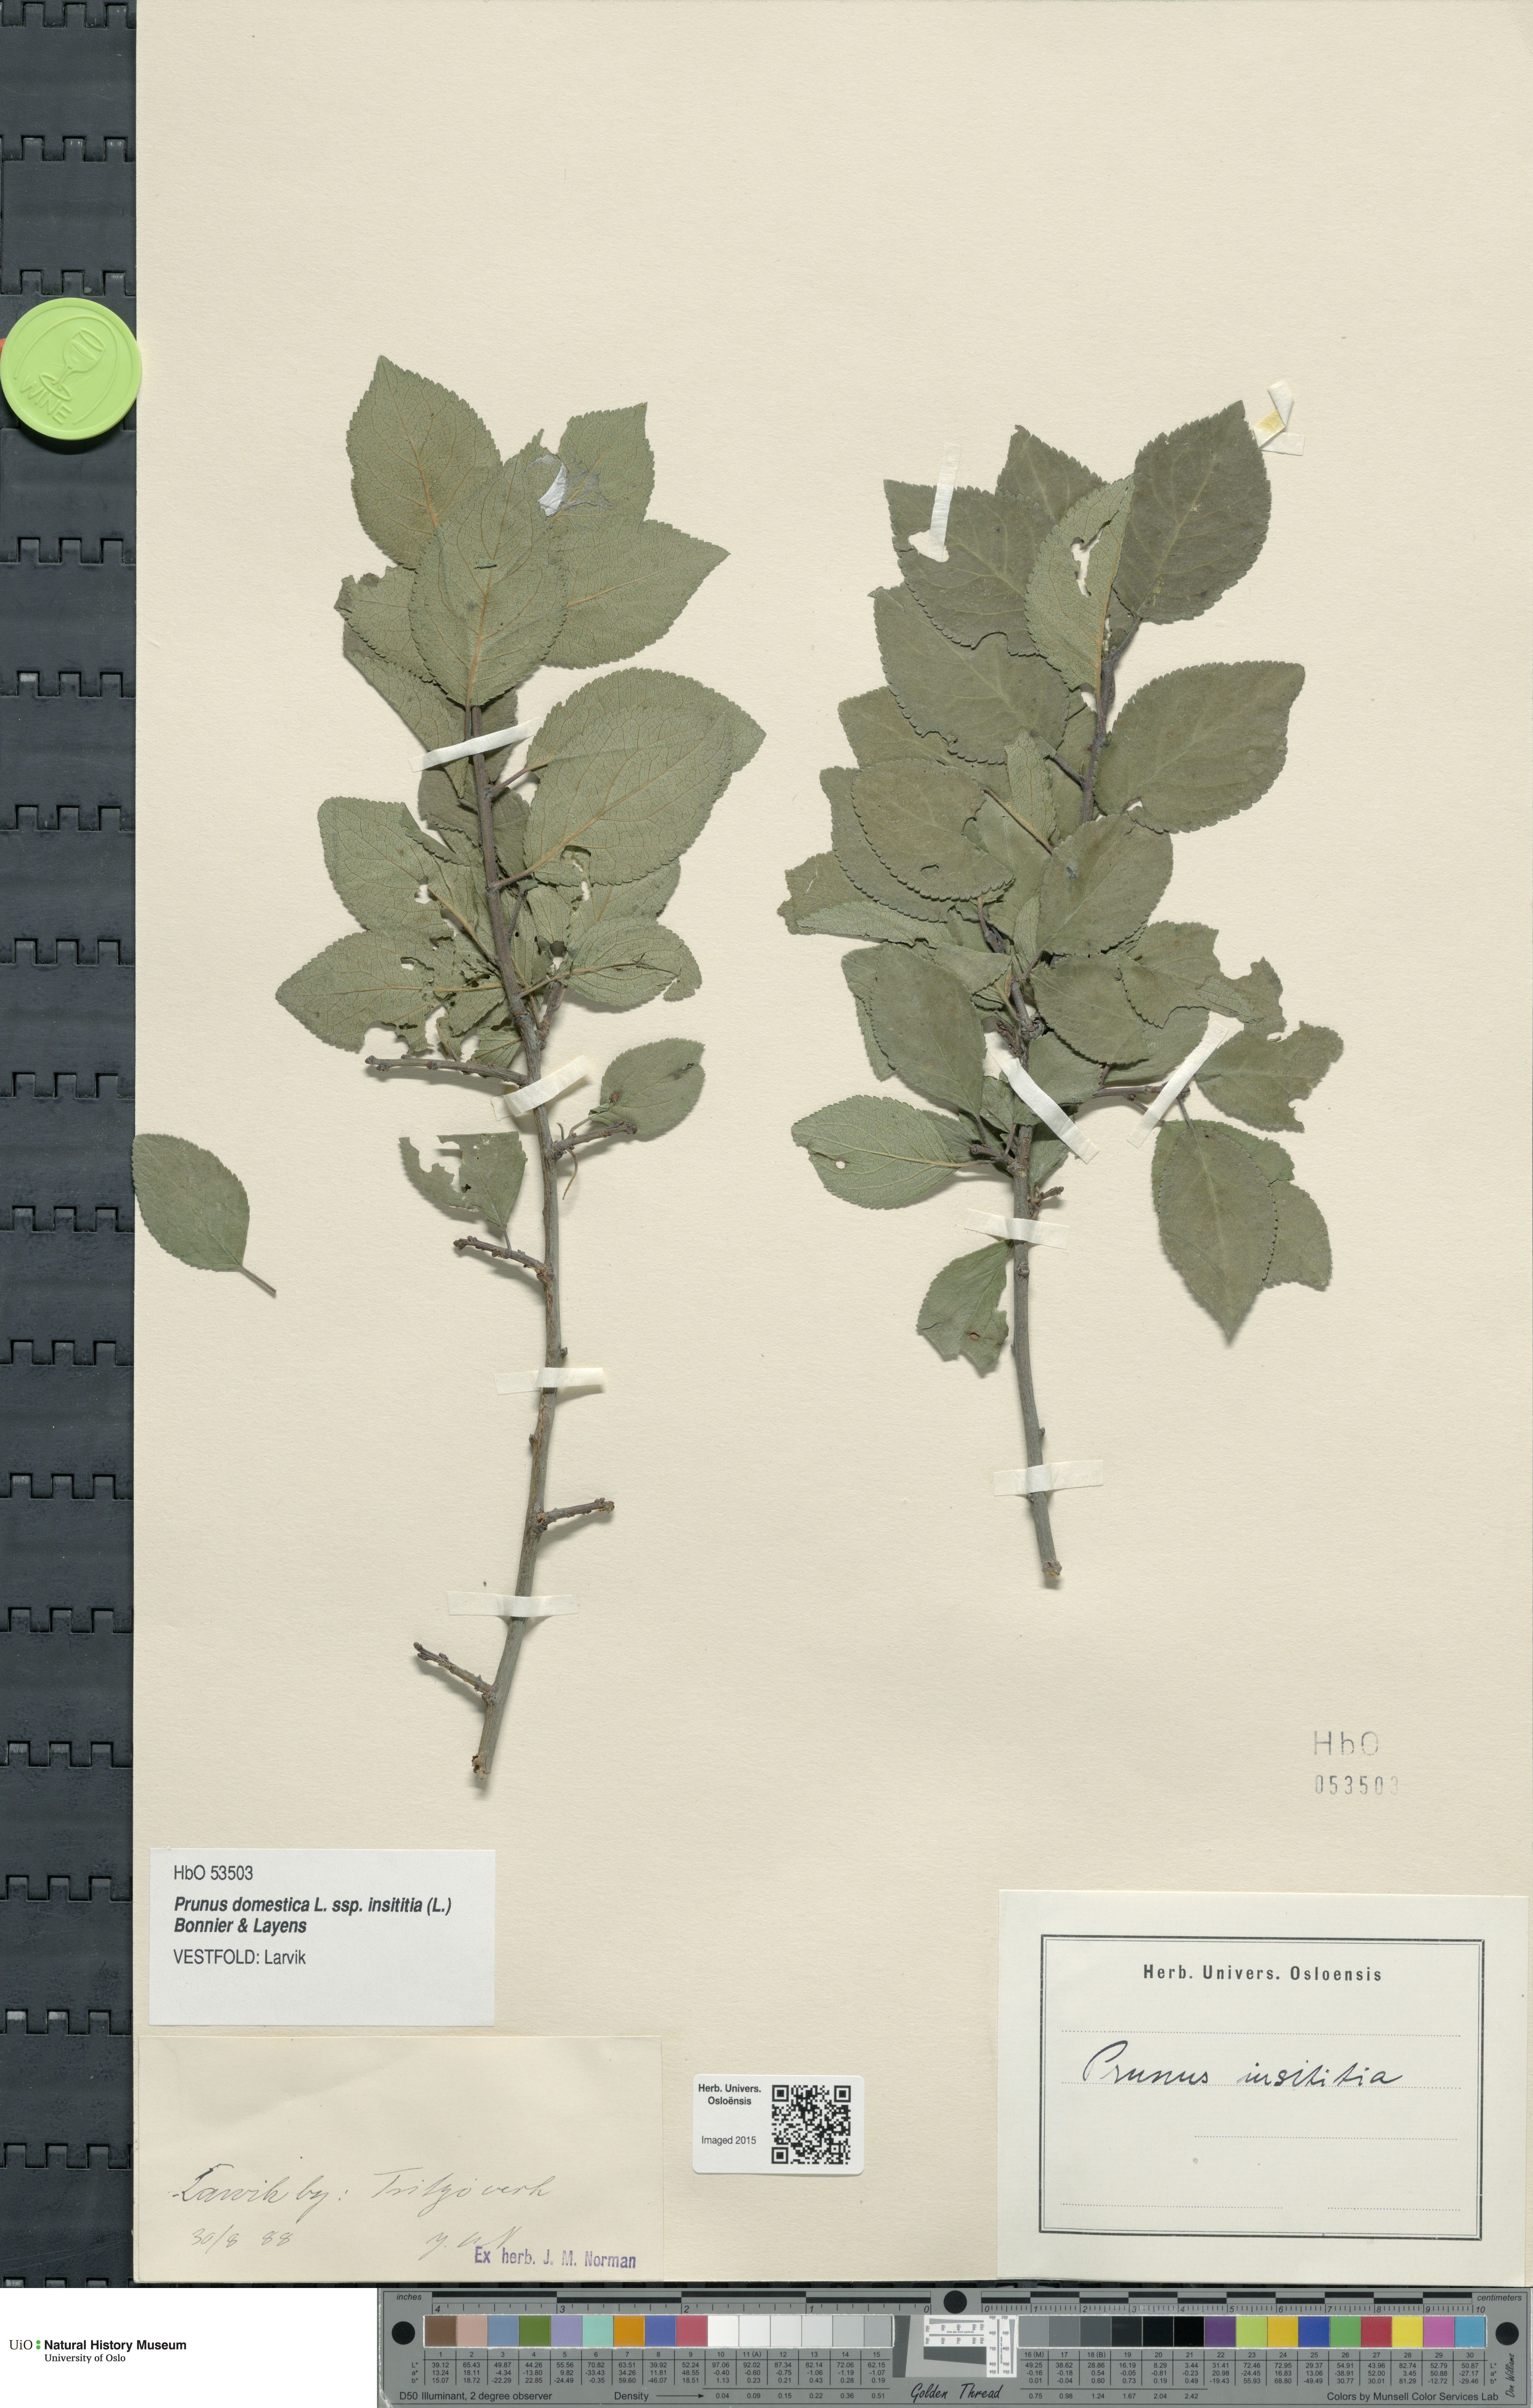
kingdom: Plantae
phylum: Tracheophyta
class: Magnoliopsida
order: Rosales
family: Rosaceae
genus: Prunus
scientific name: Prunus domestica
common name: Wild plum
